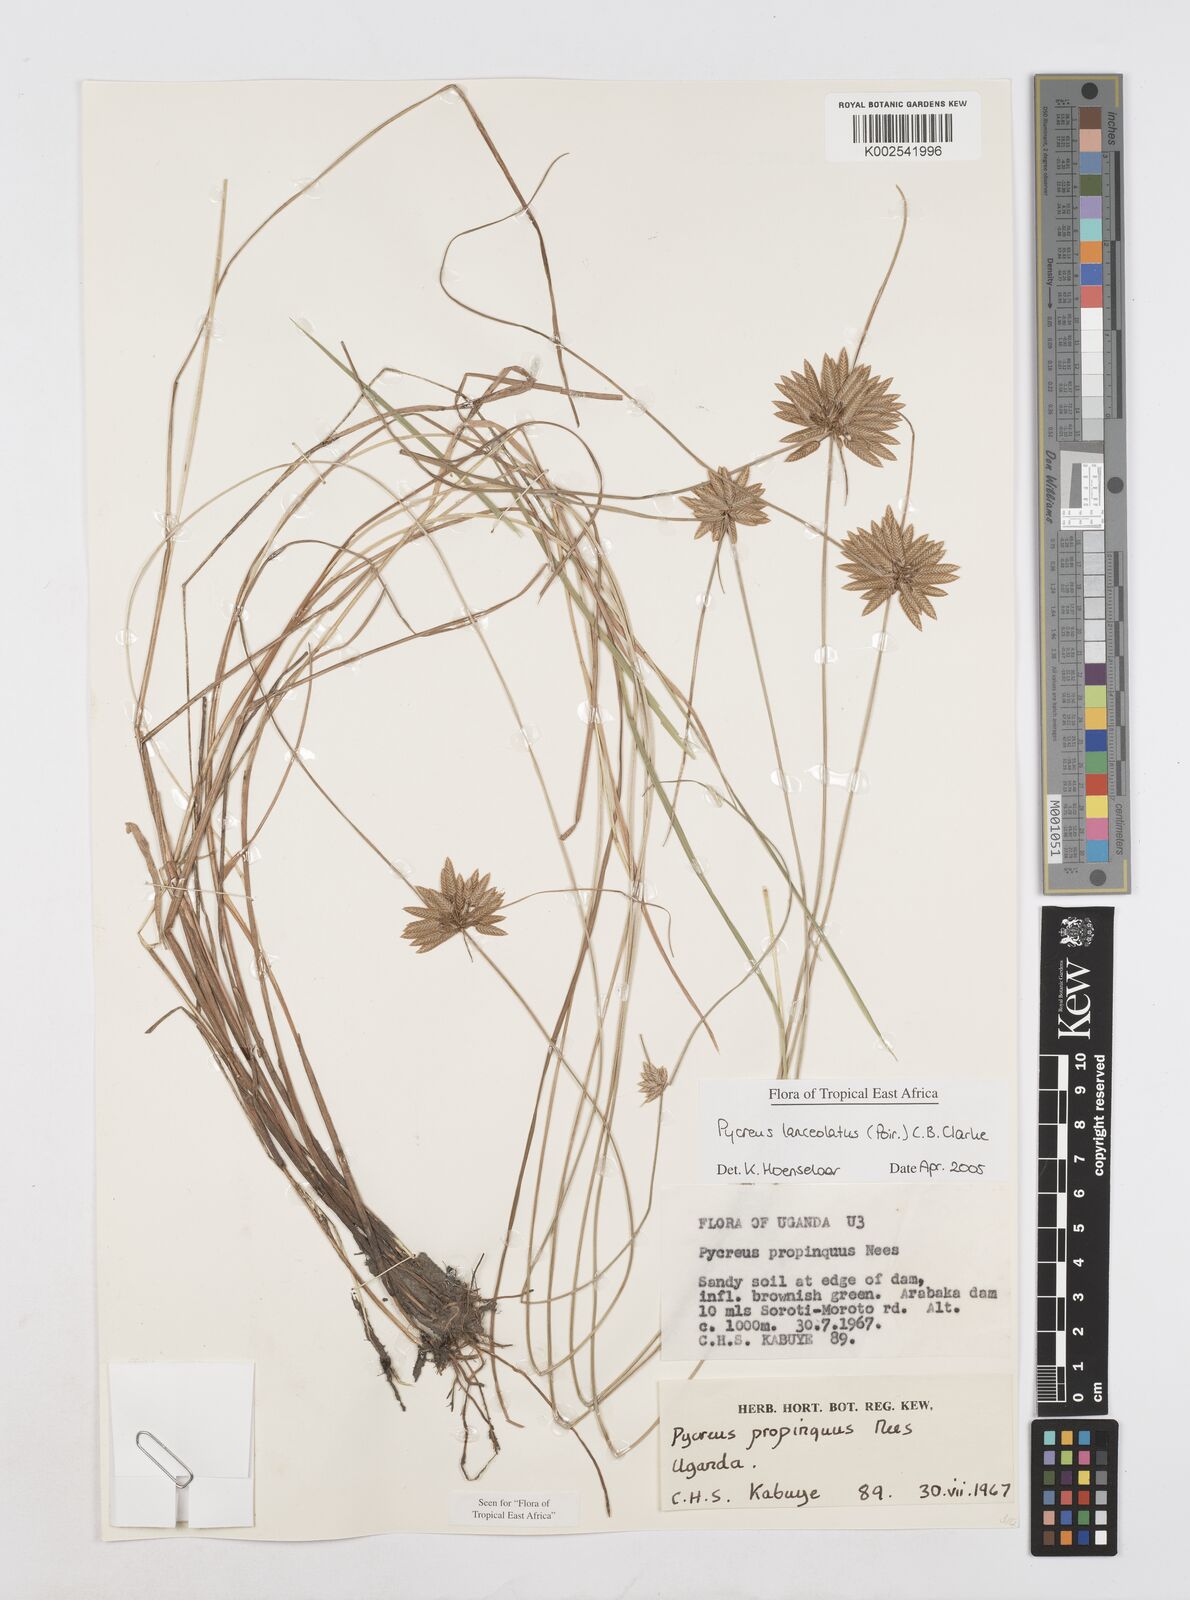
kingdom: Plantae
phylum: Tracheophyta
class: Liliopsida
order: Poales
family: Cyperaceae
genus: Cyperus
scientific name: Cyperus lanceolatus
